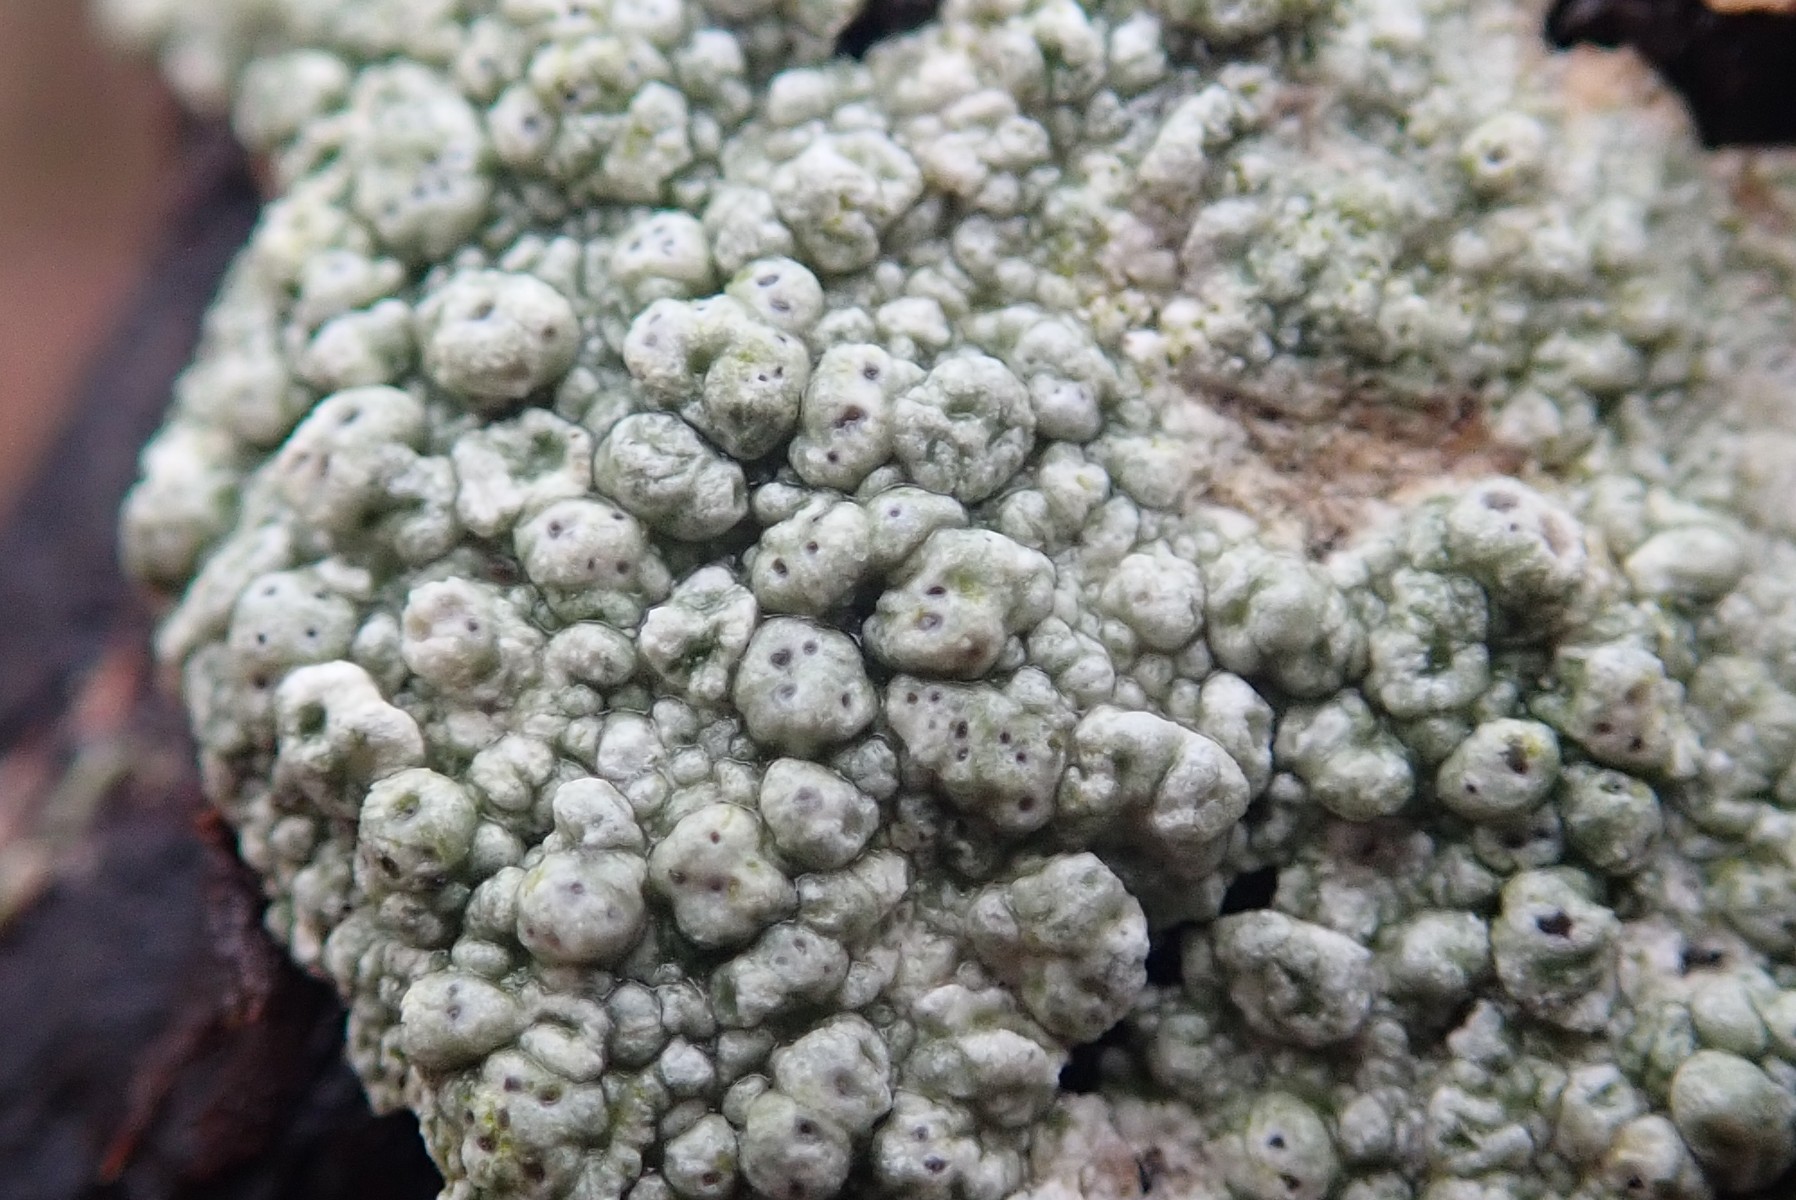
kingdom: Fungi
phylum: Ascomycota
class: Lecanoromycetes
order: Pertusariales
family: Pertusariaceae
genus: Pertusaria
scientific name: Pertusaria pertusa
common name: almindelig prikvortelav
